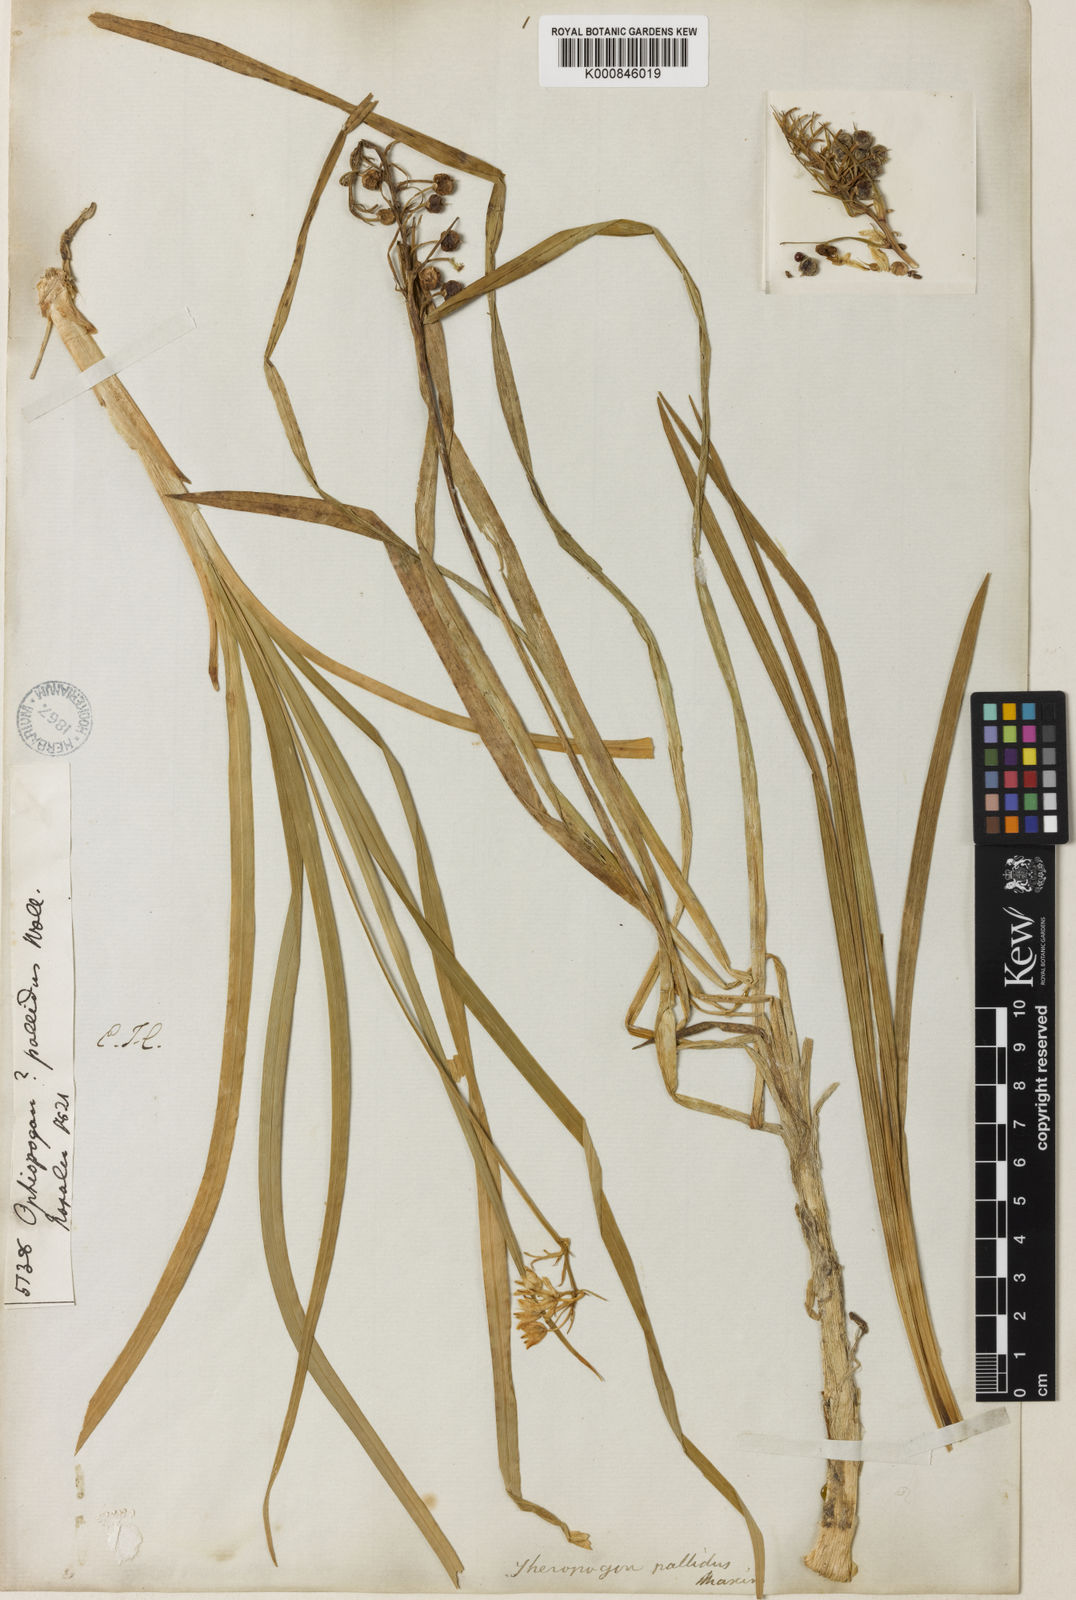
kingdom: Plantae
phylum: Tracheophyta
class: Liliopsida
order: Asparagales
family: Asparagaceae
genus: Theropogon
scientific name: Theropogon pallidus
